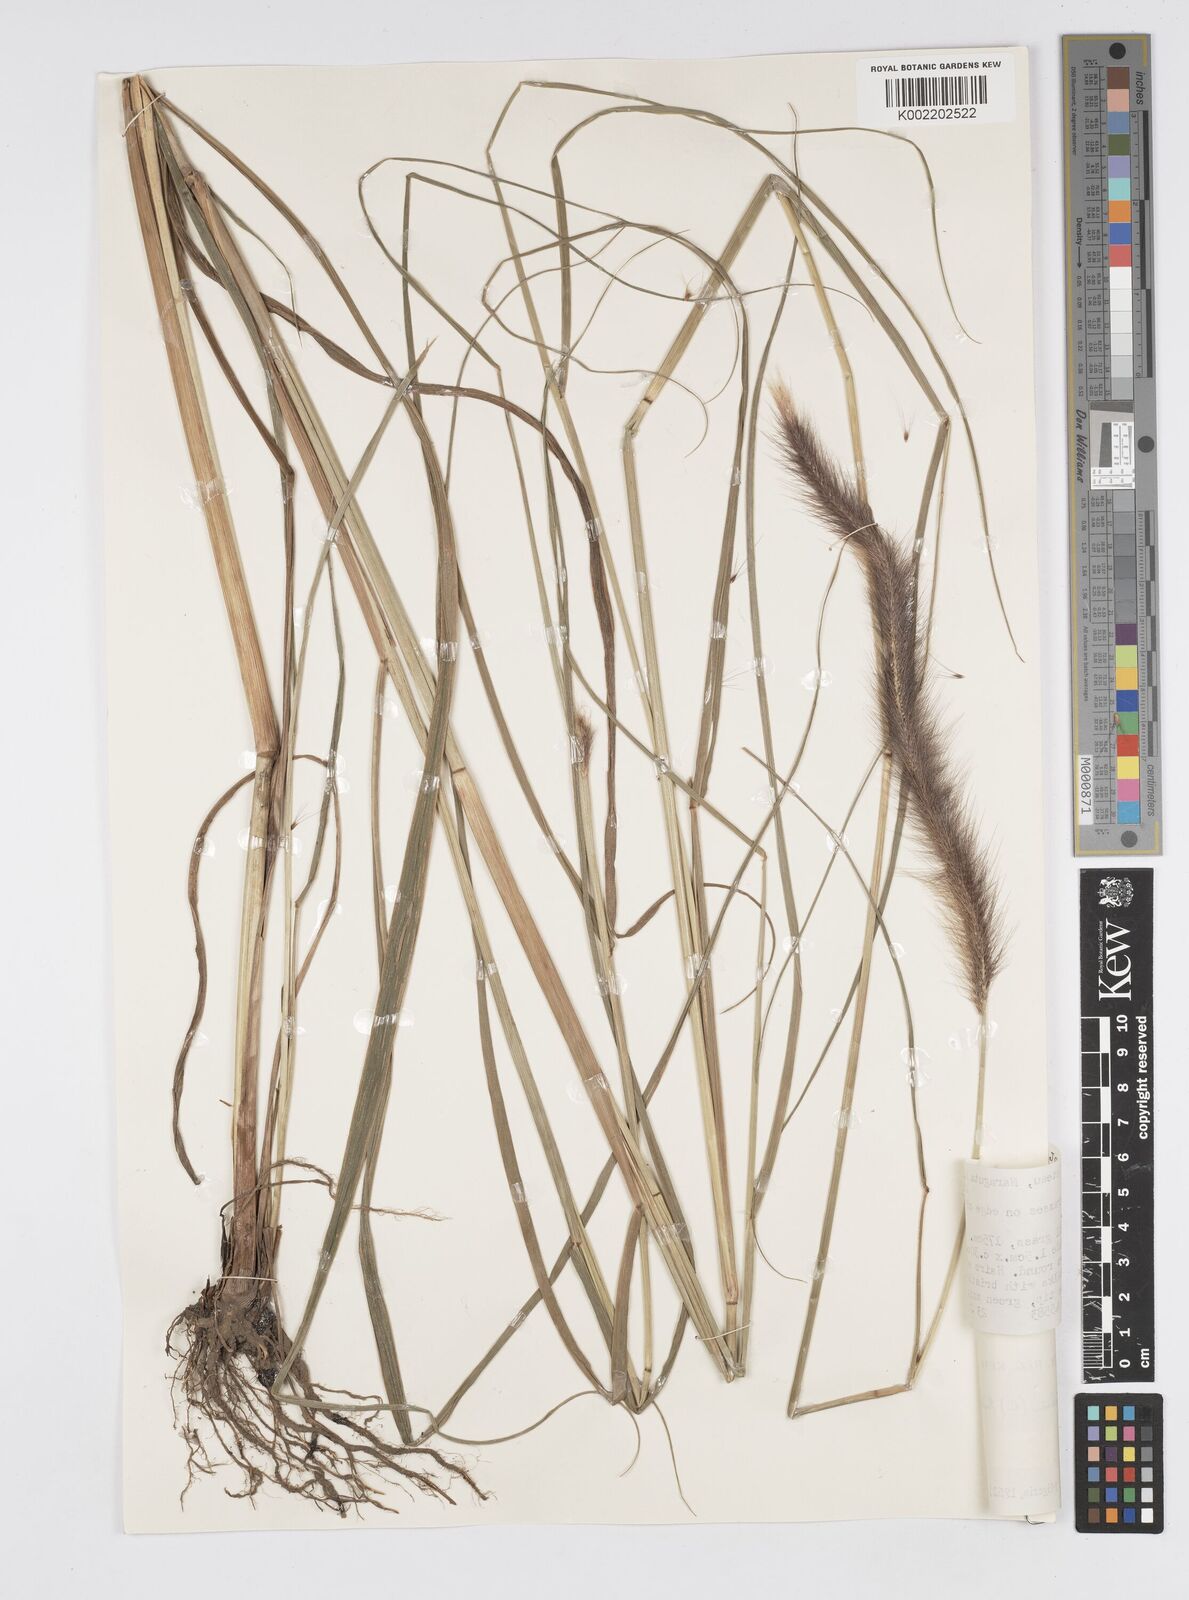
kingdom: Plantae
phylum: Tracheophyta
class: Liliopsida
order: Poales
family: Poaceae
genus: Cenchrus
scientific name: Cenchrus Pennisetum spec
